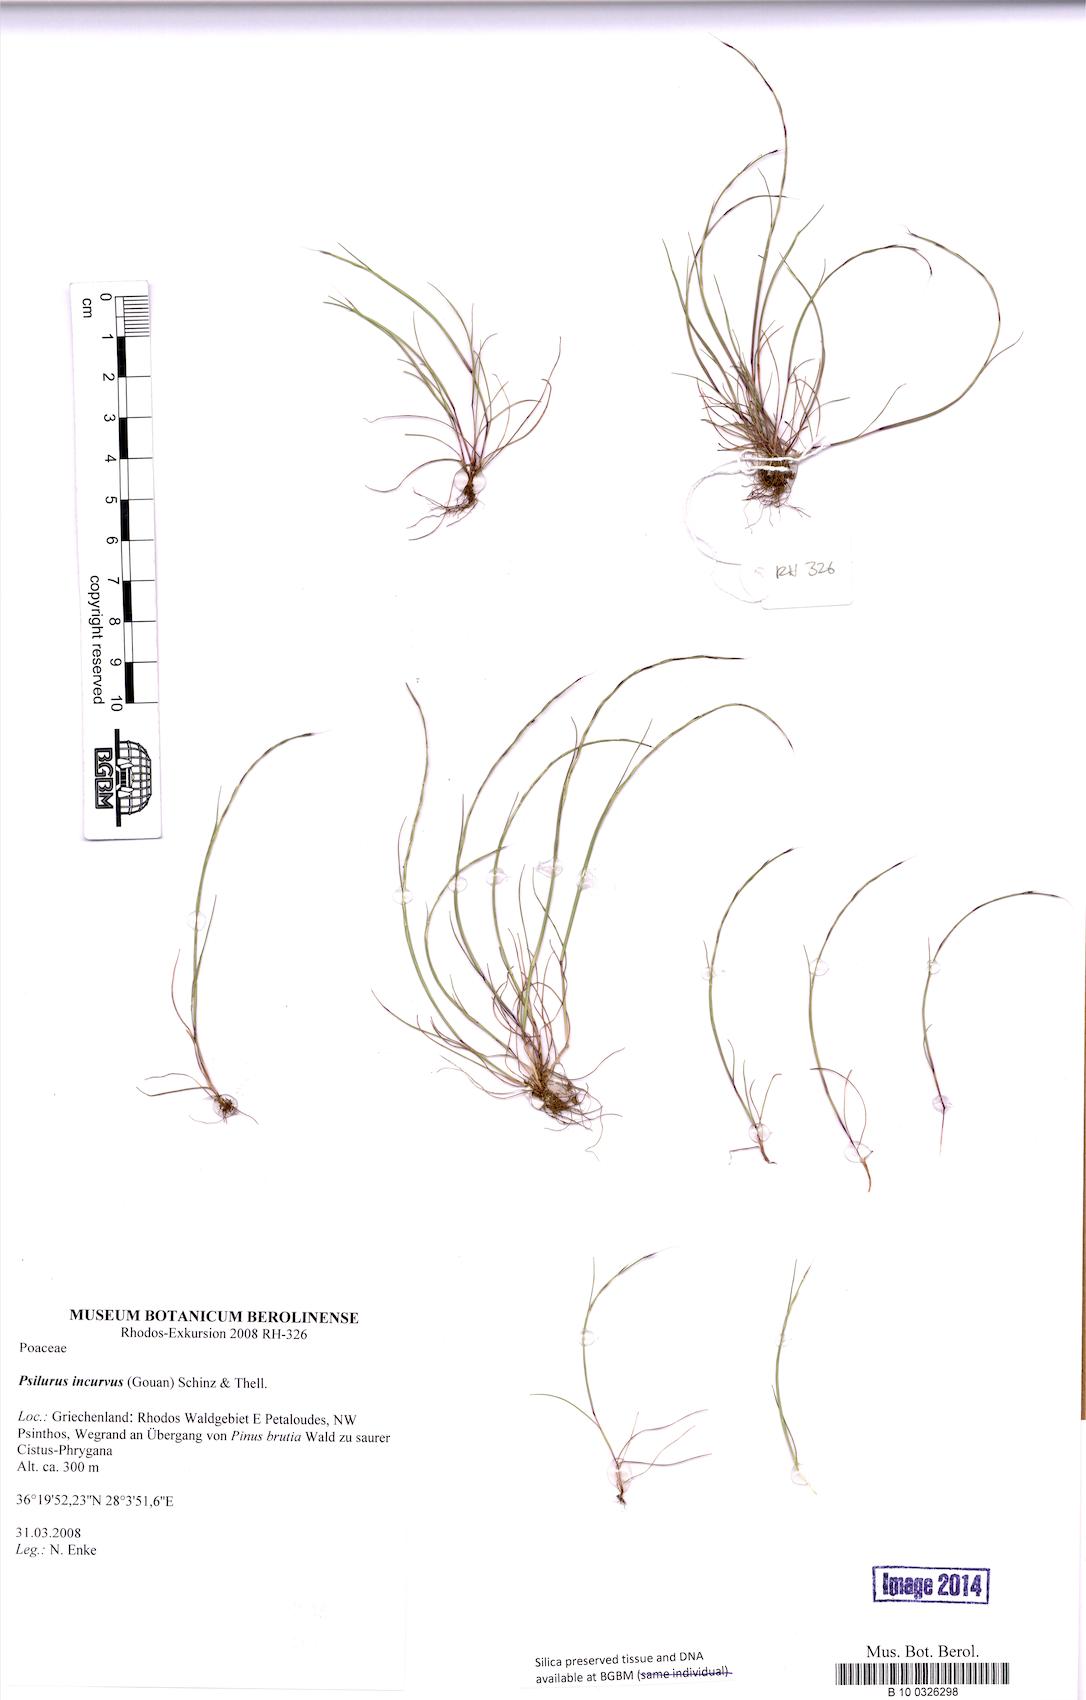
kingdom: Plantae
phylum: Tracheophyta
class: Liliopsida
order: Poales
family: Poaceae
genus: Festuca
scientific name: Festuca incurva
